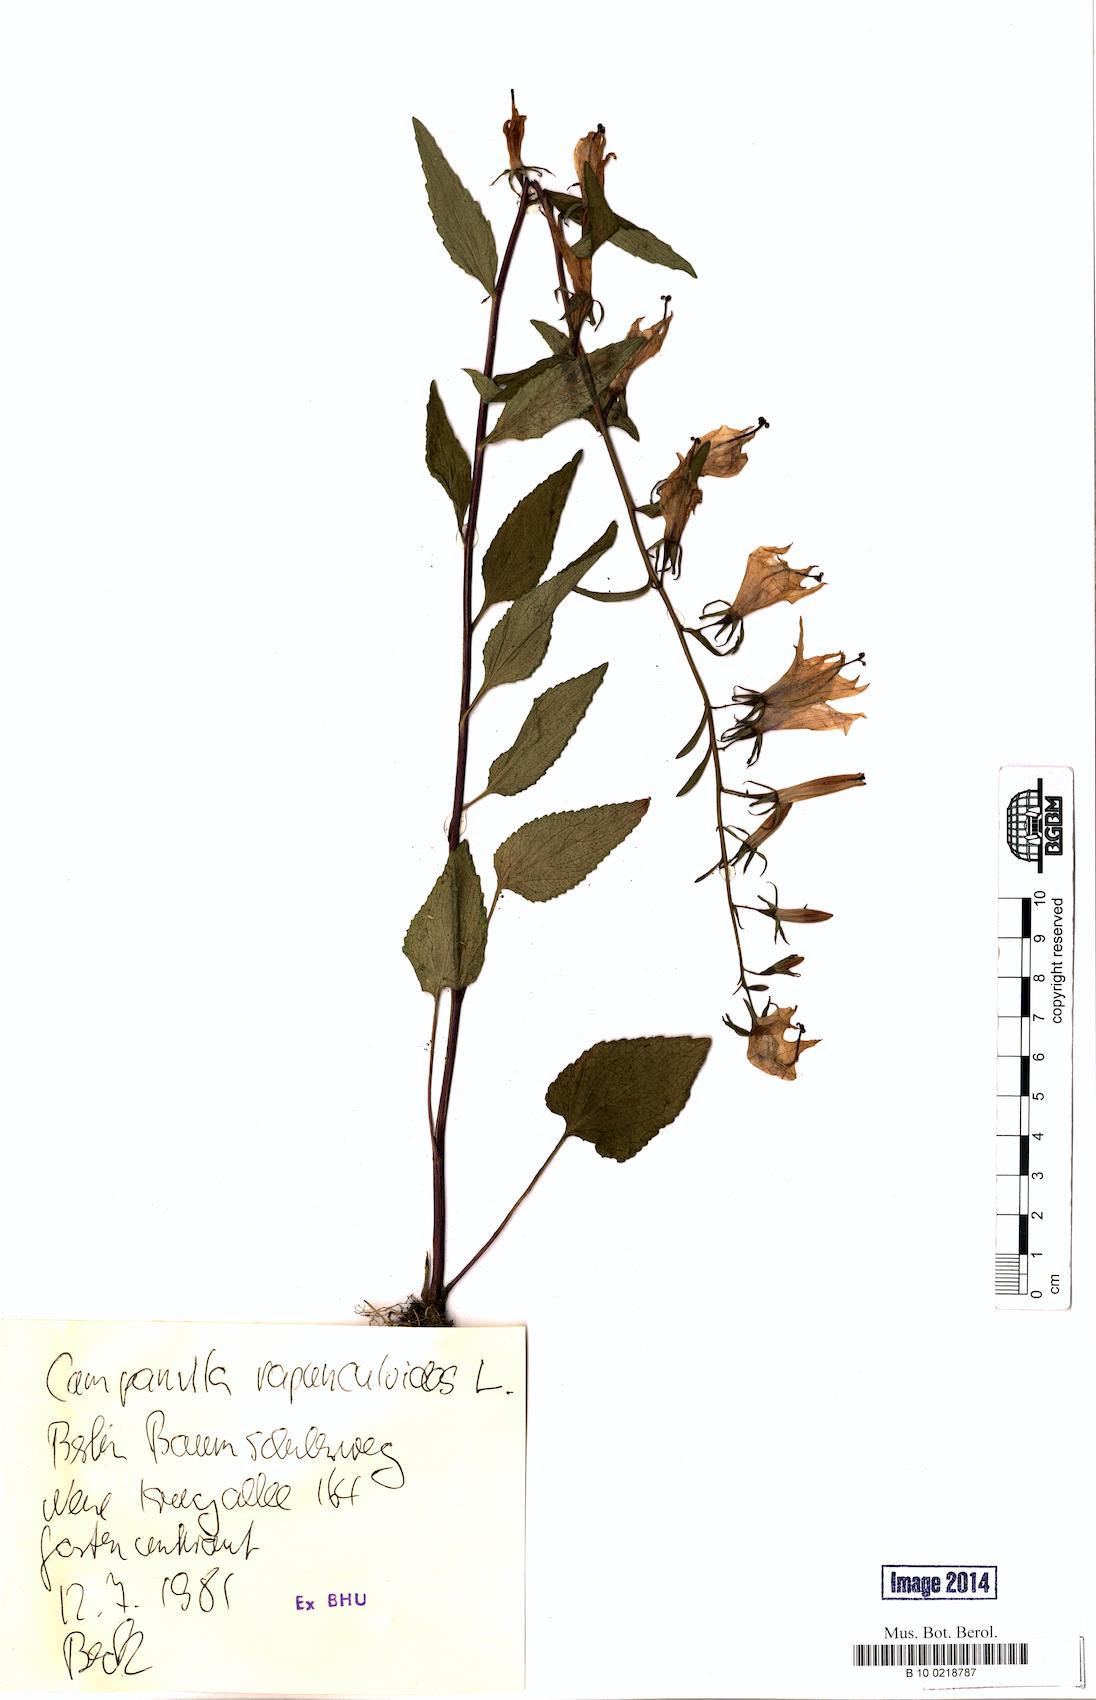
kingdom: Plantae
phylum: Tracheophyta
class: Magnoliopsida
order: Asterales
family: Campanulaceae
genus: Campanula
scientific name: Campanula rapunculoides
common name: Creeping bellflower
